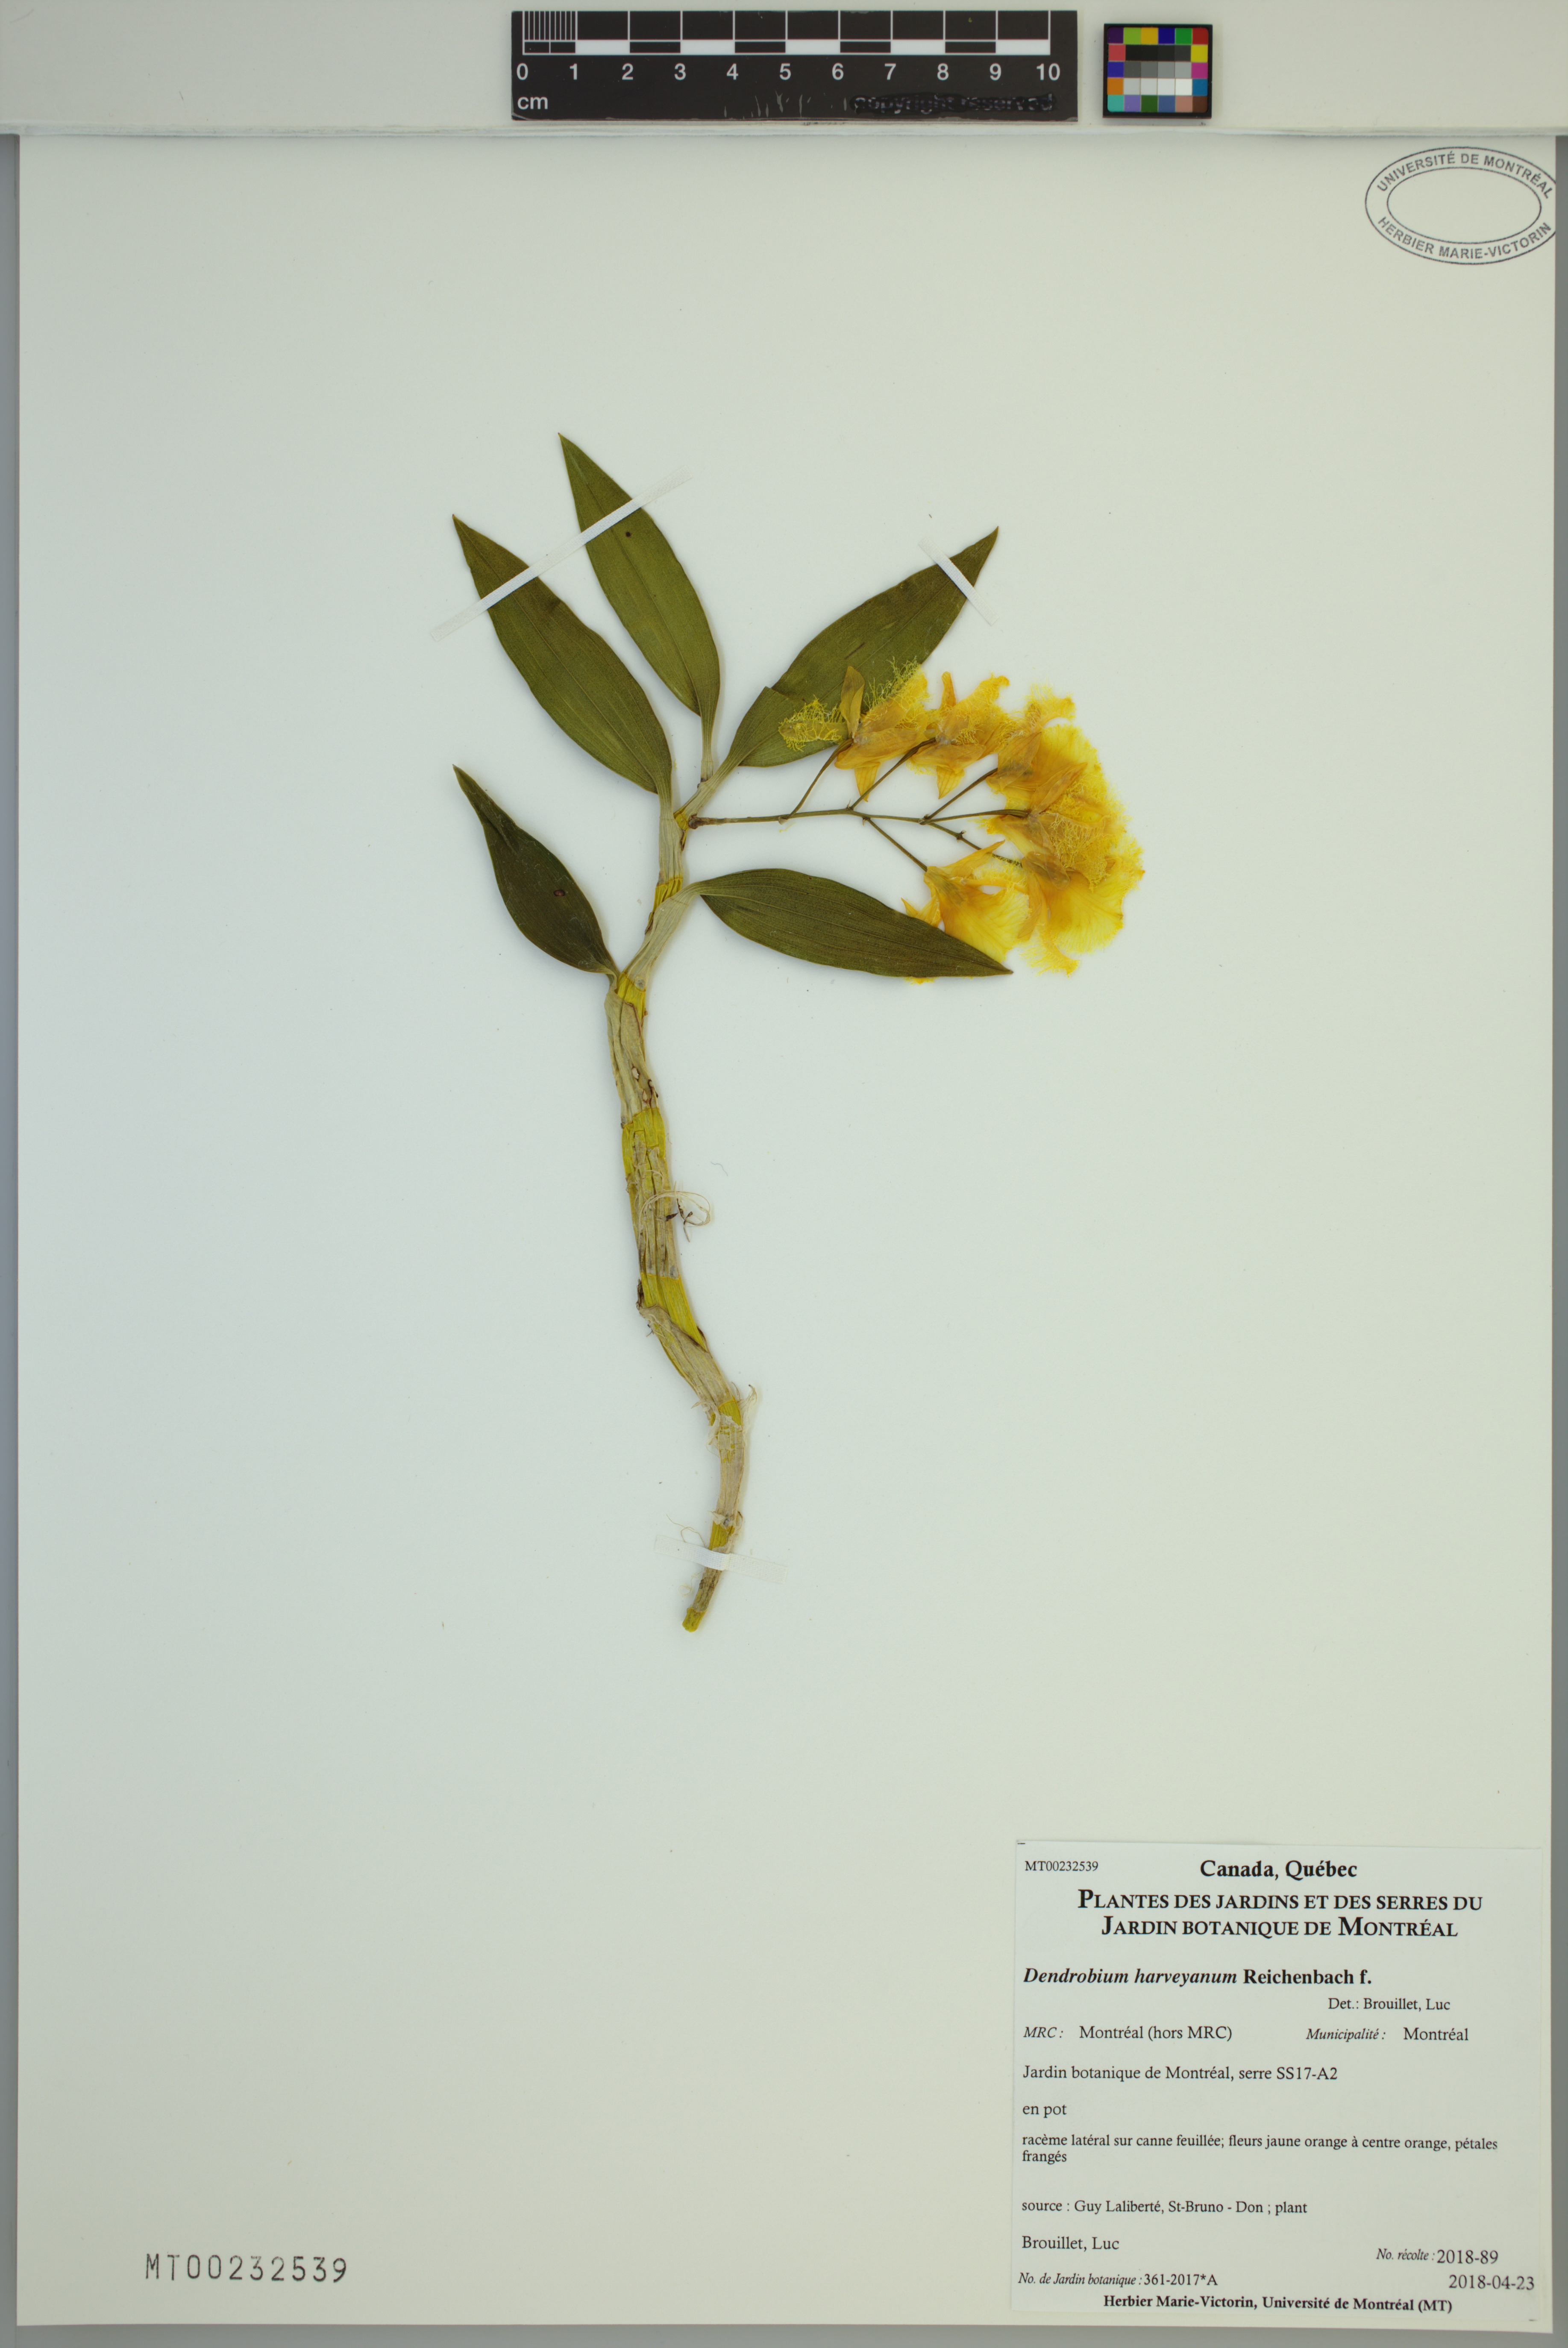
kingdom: Plantae
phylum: Tracheophyta
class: Liliopsida
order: Asparagales
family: Orchidaceae
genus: Dendrobium
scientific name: Dendrobium harveyanum
